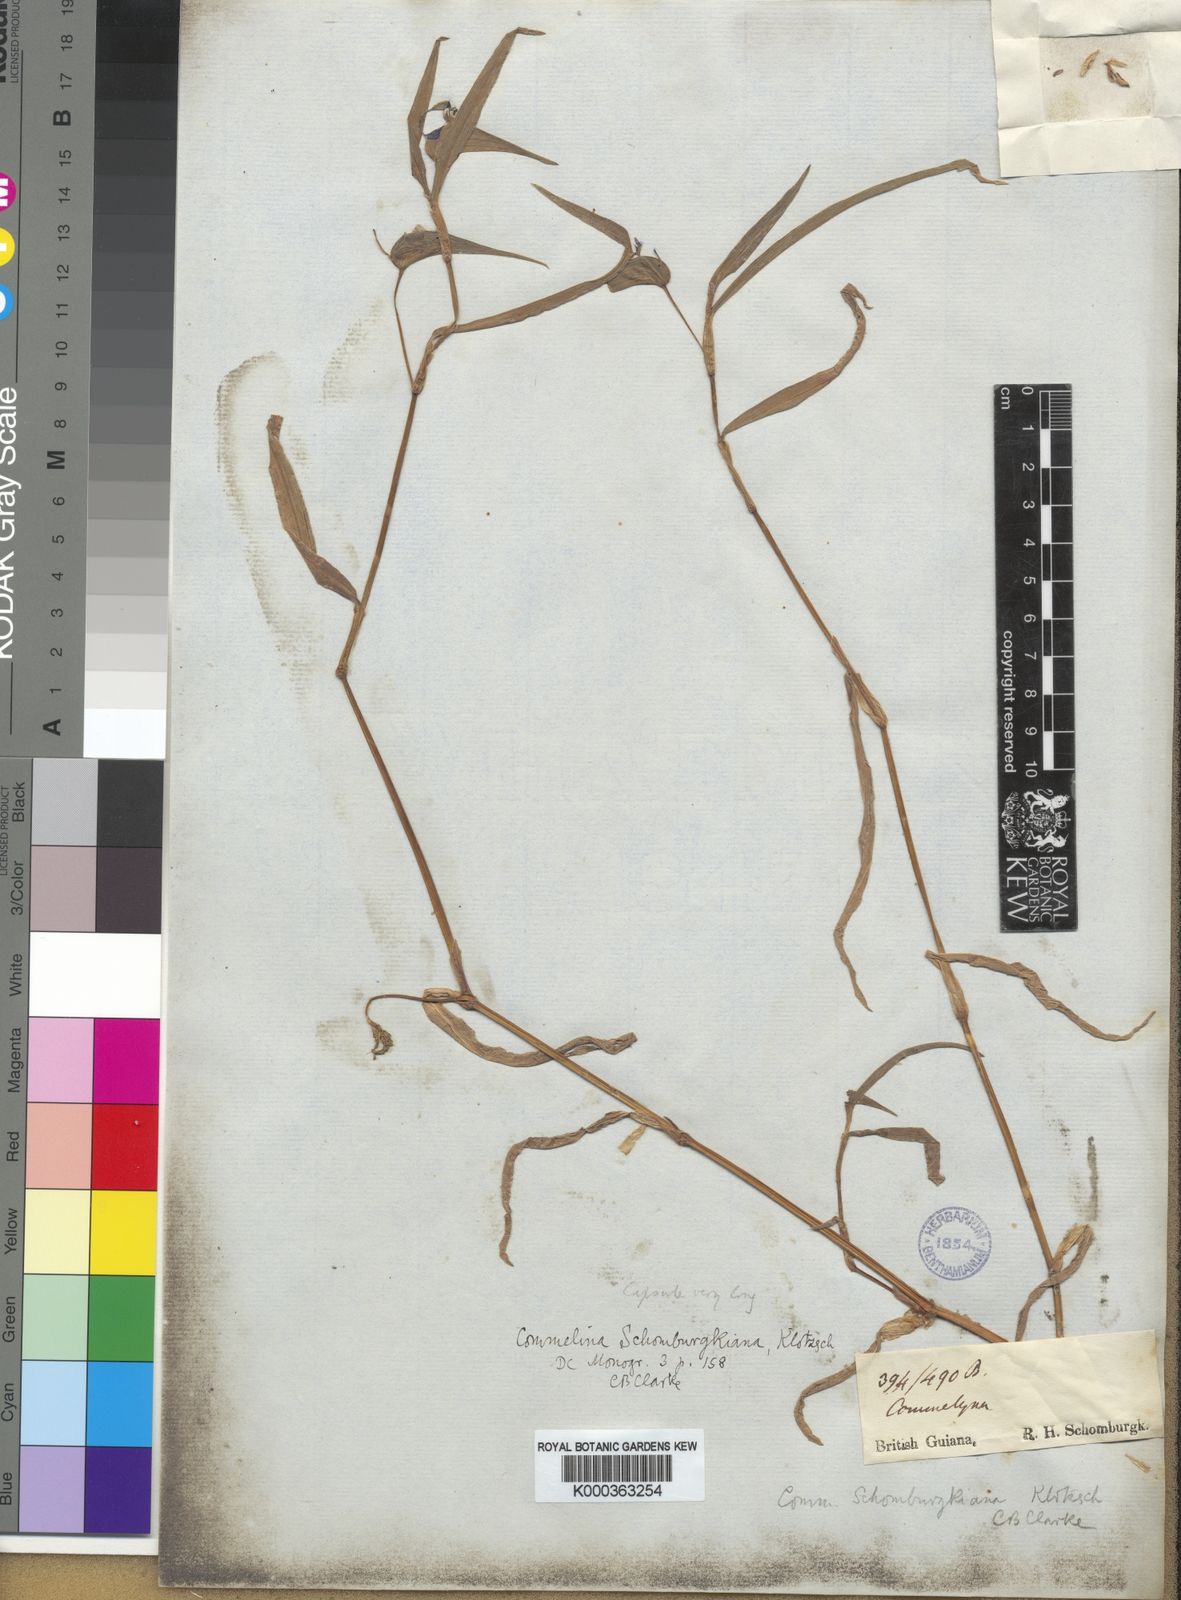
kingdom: Plantae
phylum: Tracheophyta
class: Liliopsida
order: Commelinales
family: Commelinaceae
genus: Commelina
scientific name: Commelina longicaulis
